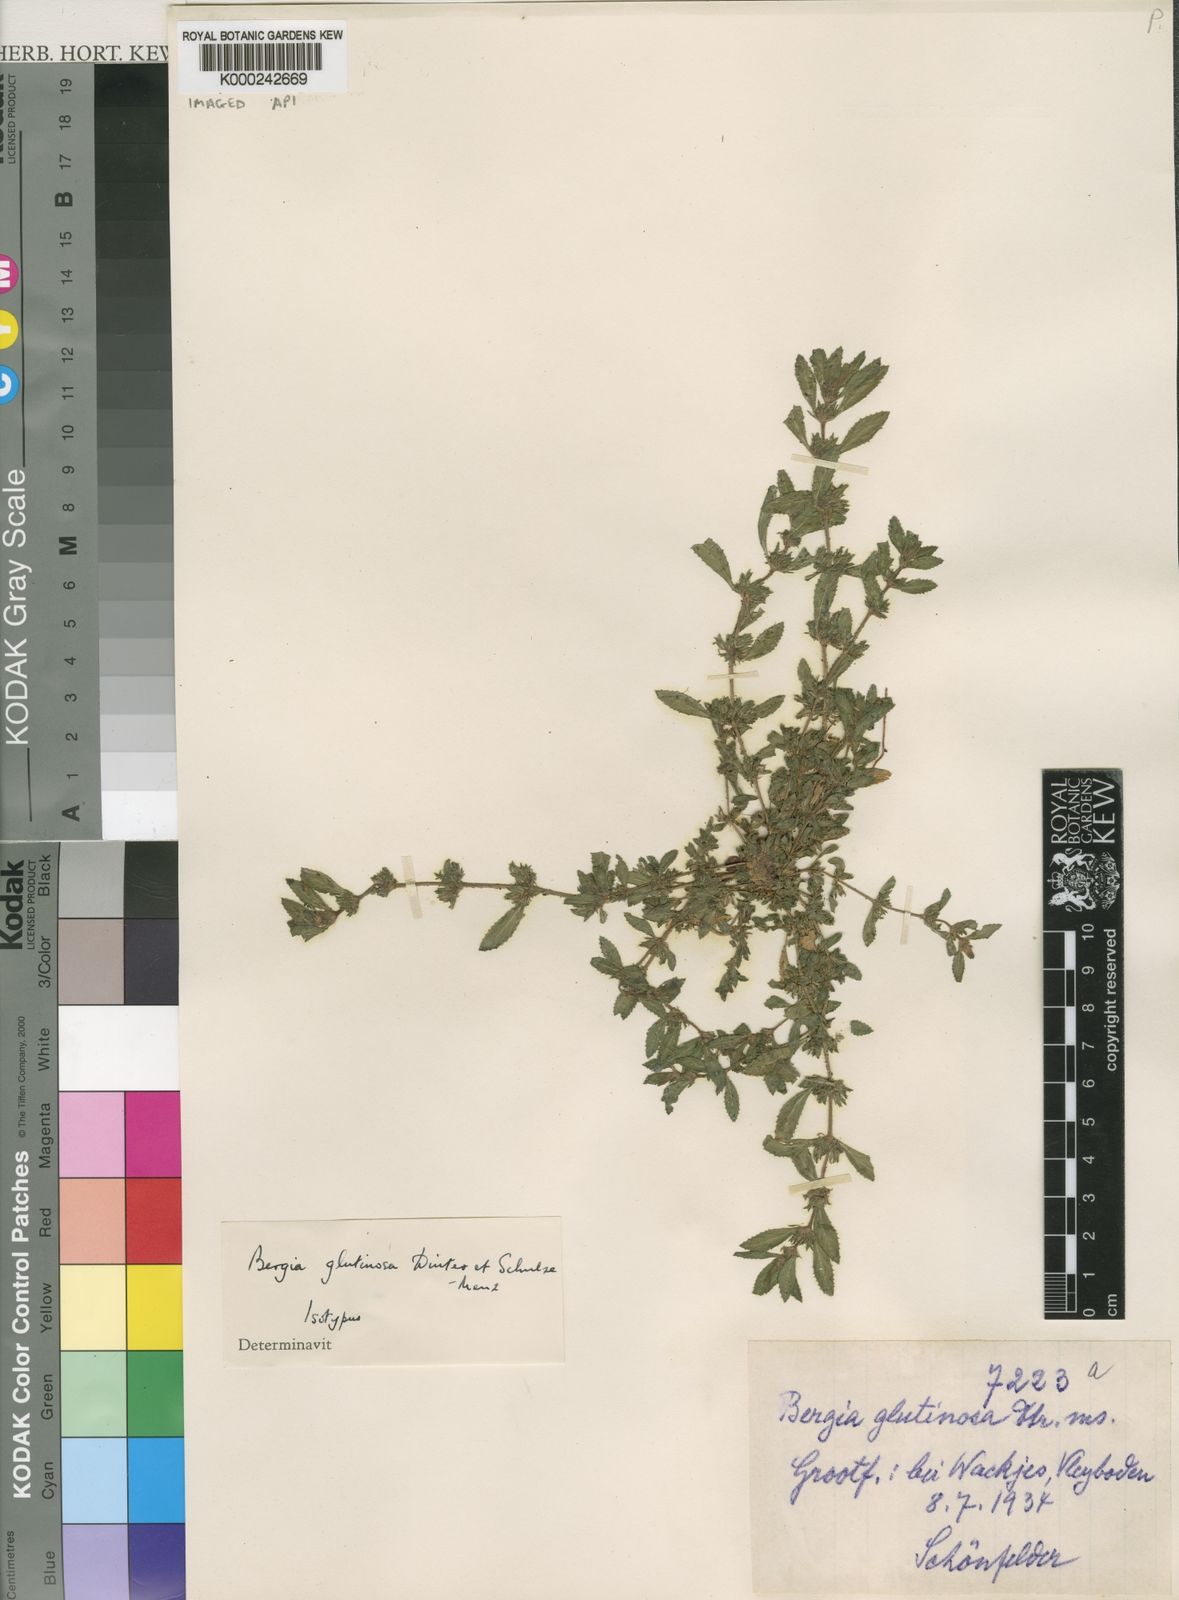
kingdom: Plantae
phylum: Tracheophyta
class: Magnoliopsida
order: Malpighiales
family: Elatinaceae
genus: Bergia
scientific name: Bergia glutinosa
